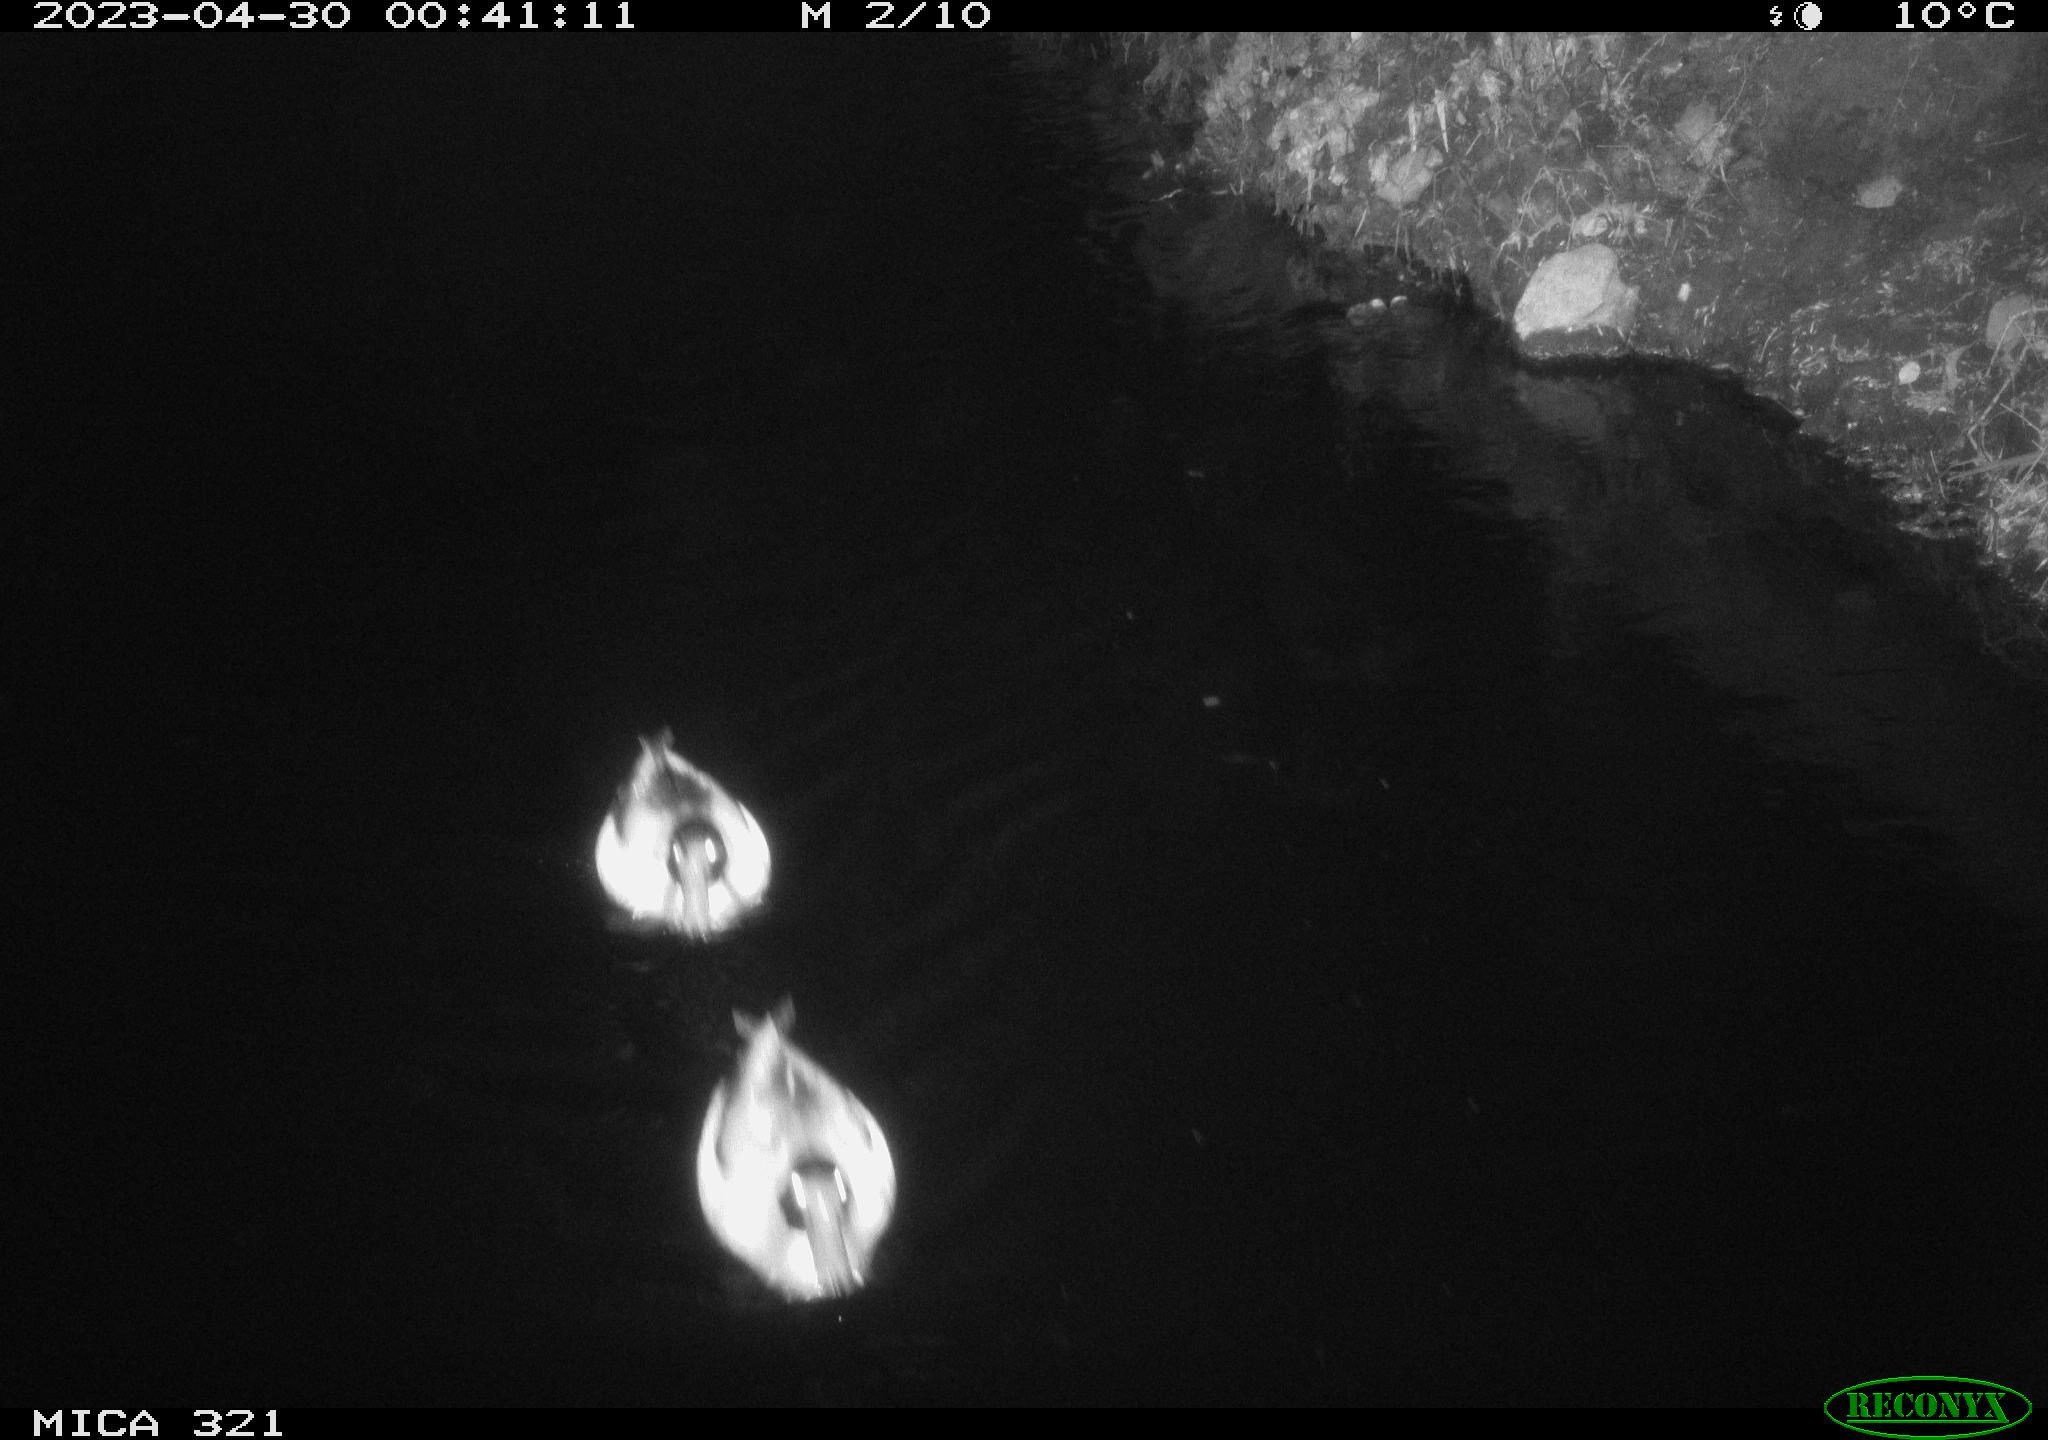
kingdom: Animalia
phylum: Chordata
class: Aves
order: Anseriformes
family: Anatidae
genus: Anas
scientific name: Anas
